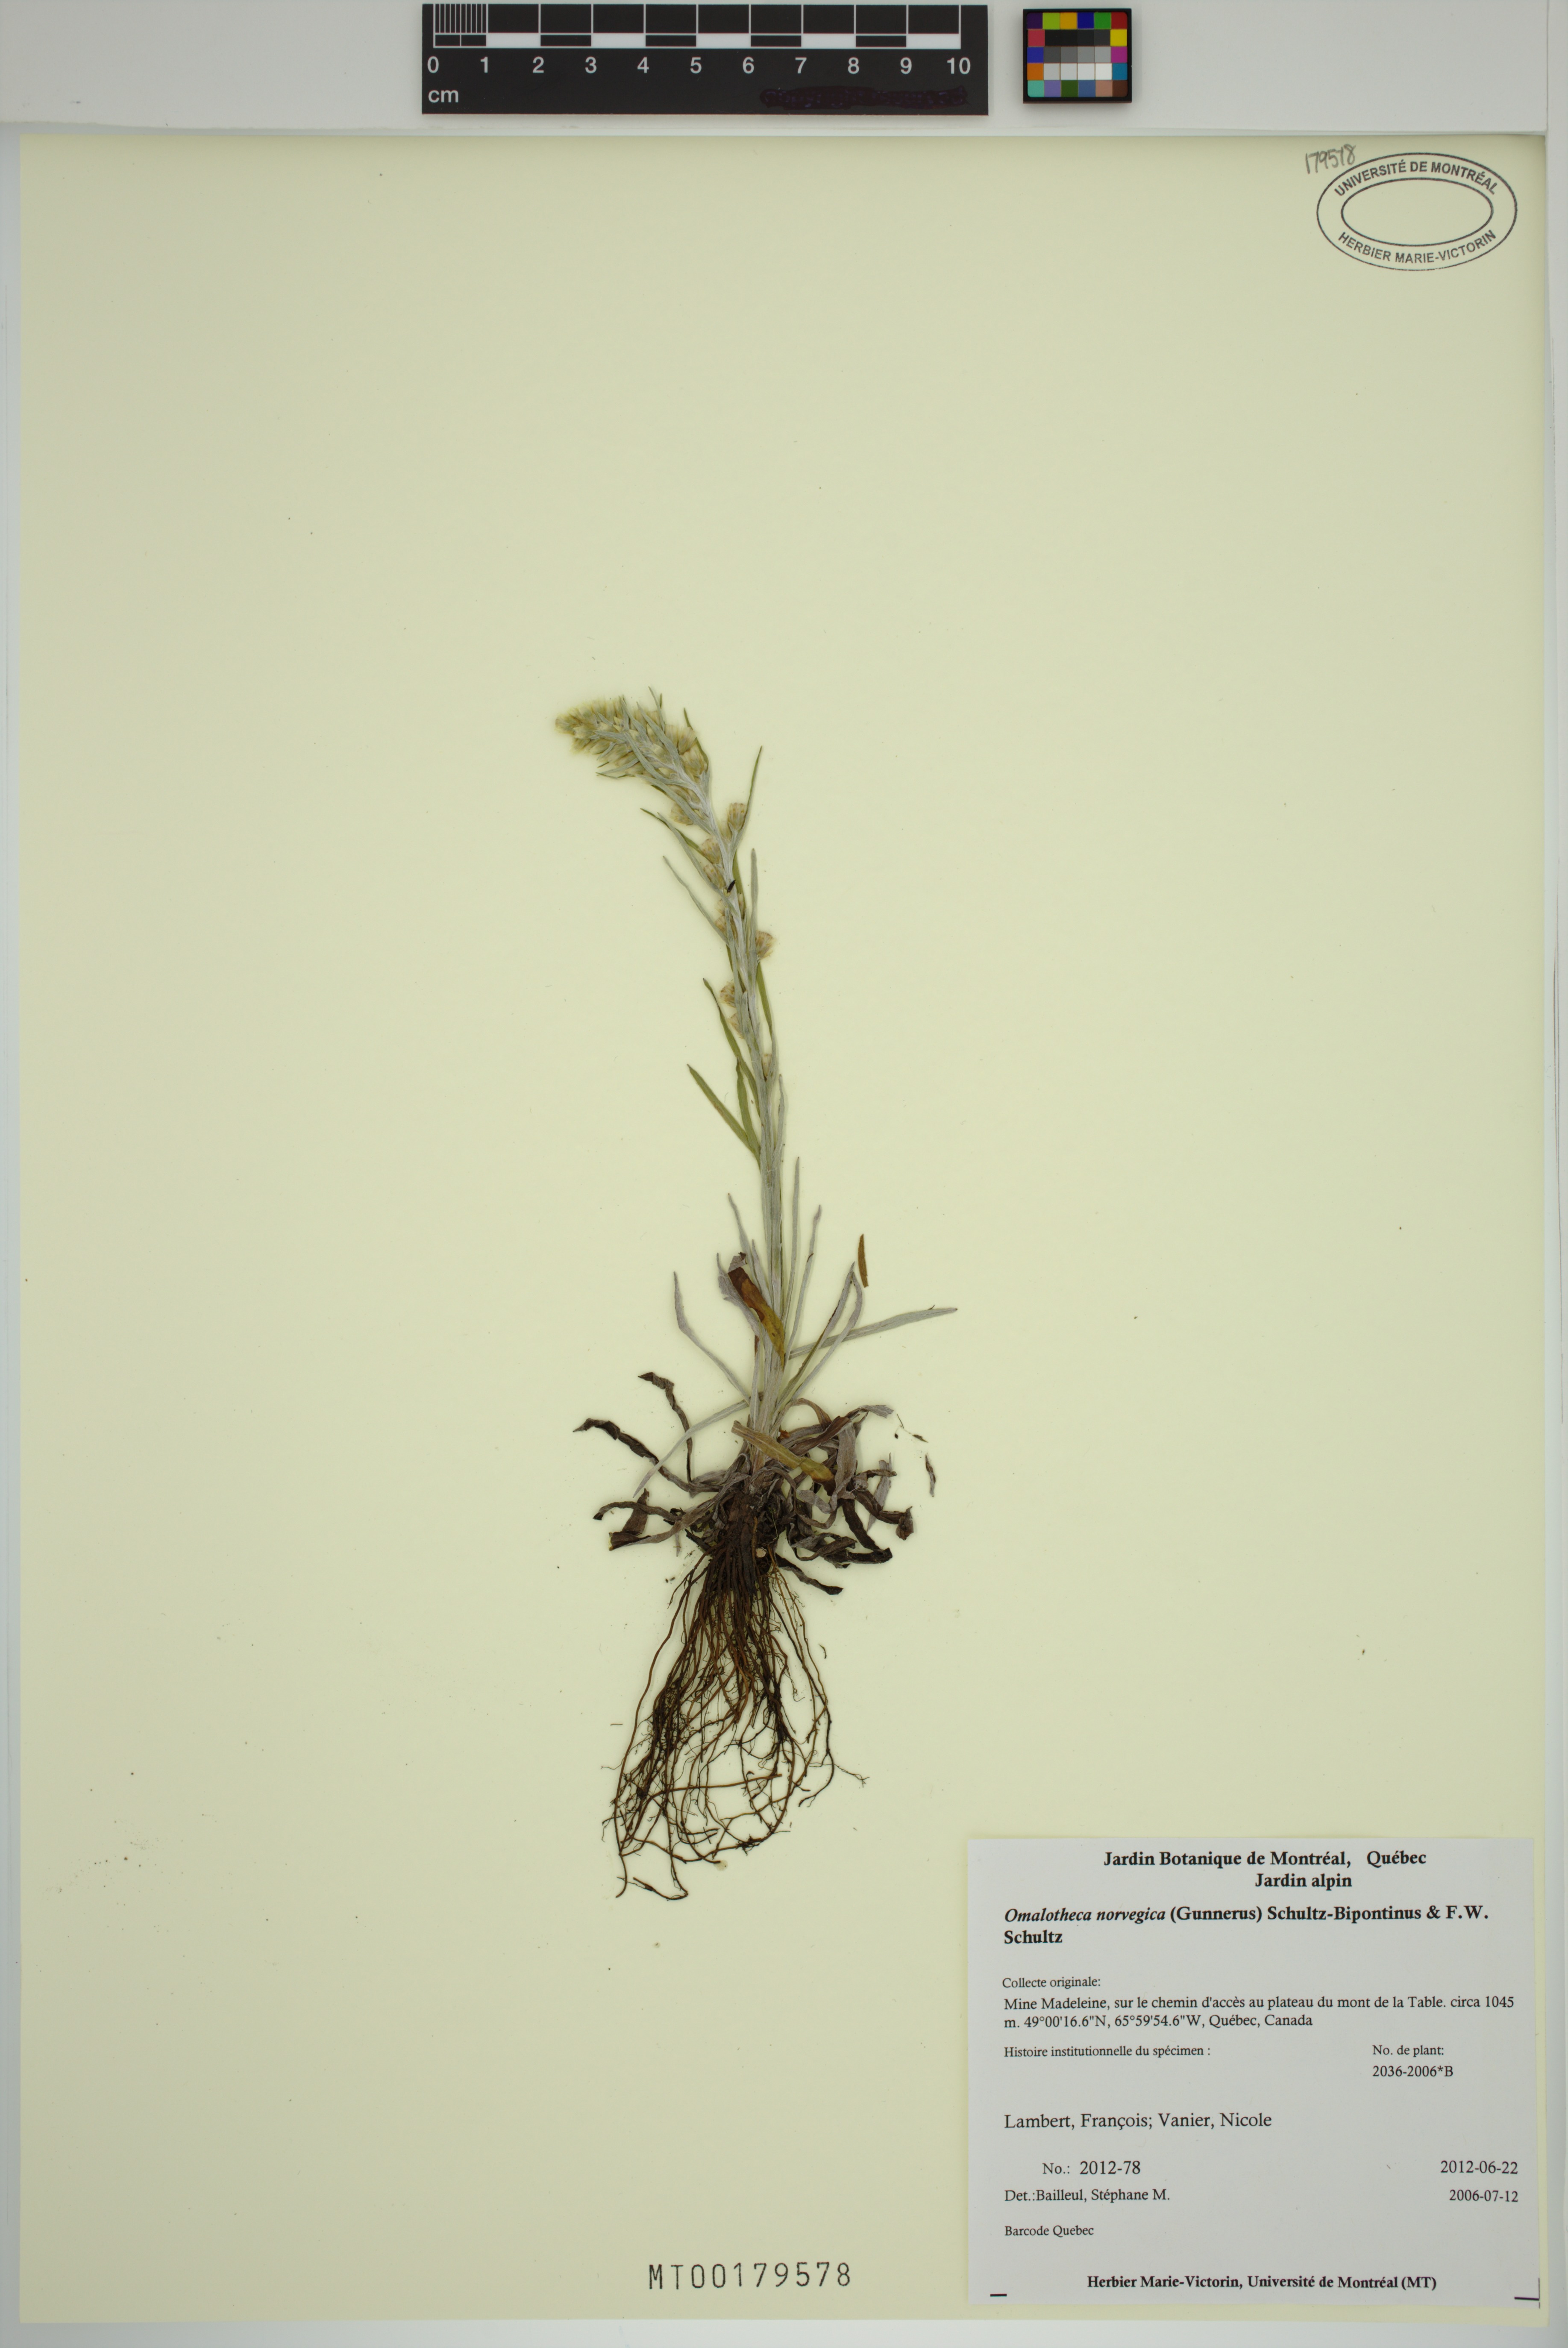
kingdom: Plantae
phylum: Tracheophyta
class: Magnoliopsida
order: Asterales
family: Asteraceae
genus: Omalotheca
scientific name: Omalotheca norvegica
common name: Norwegian arctic-cudweed
